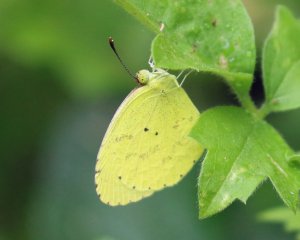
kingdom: Animalia
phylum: Arthropoda
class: Insecta
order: Lepidoptera
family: Pieridae
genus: Pyrisitia
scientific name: Pyrisitia nise
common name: Mimosa Yellow
